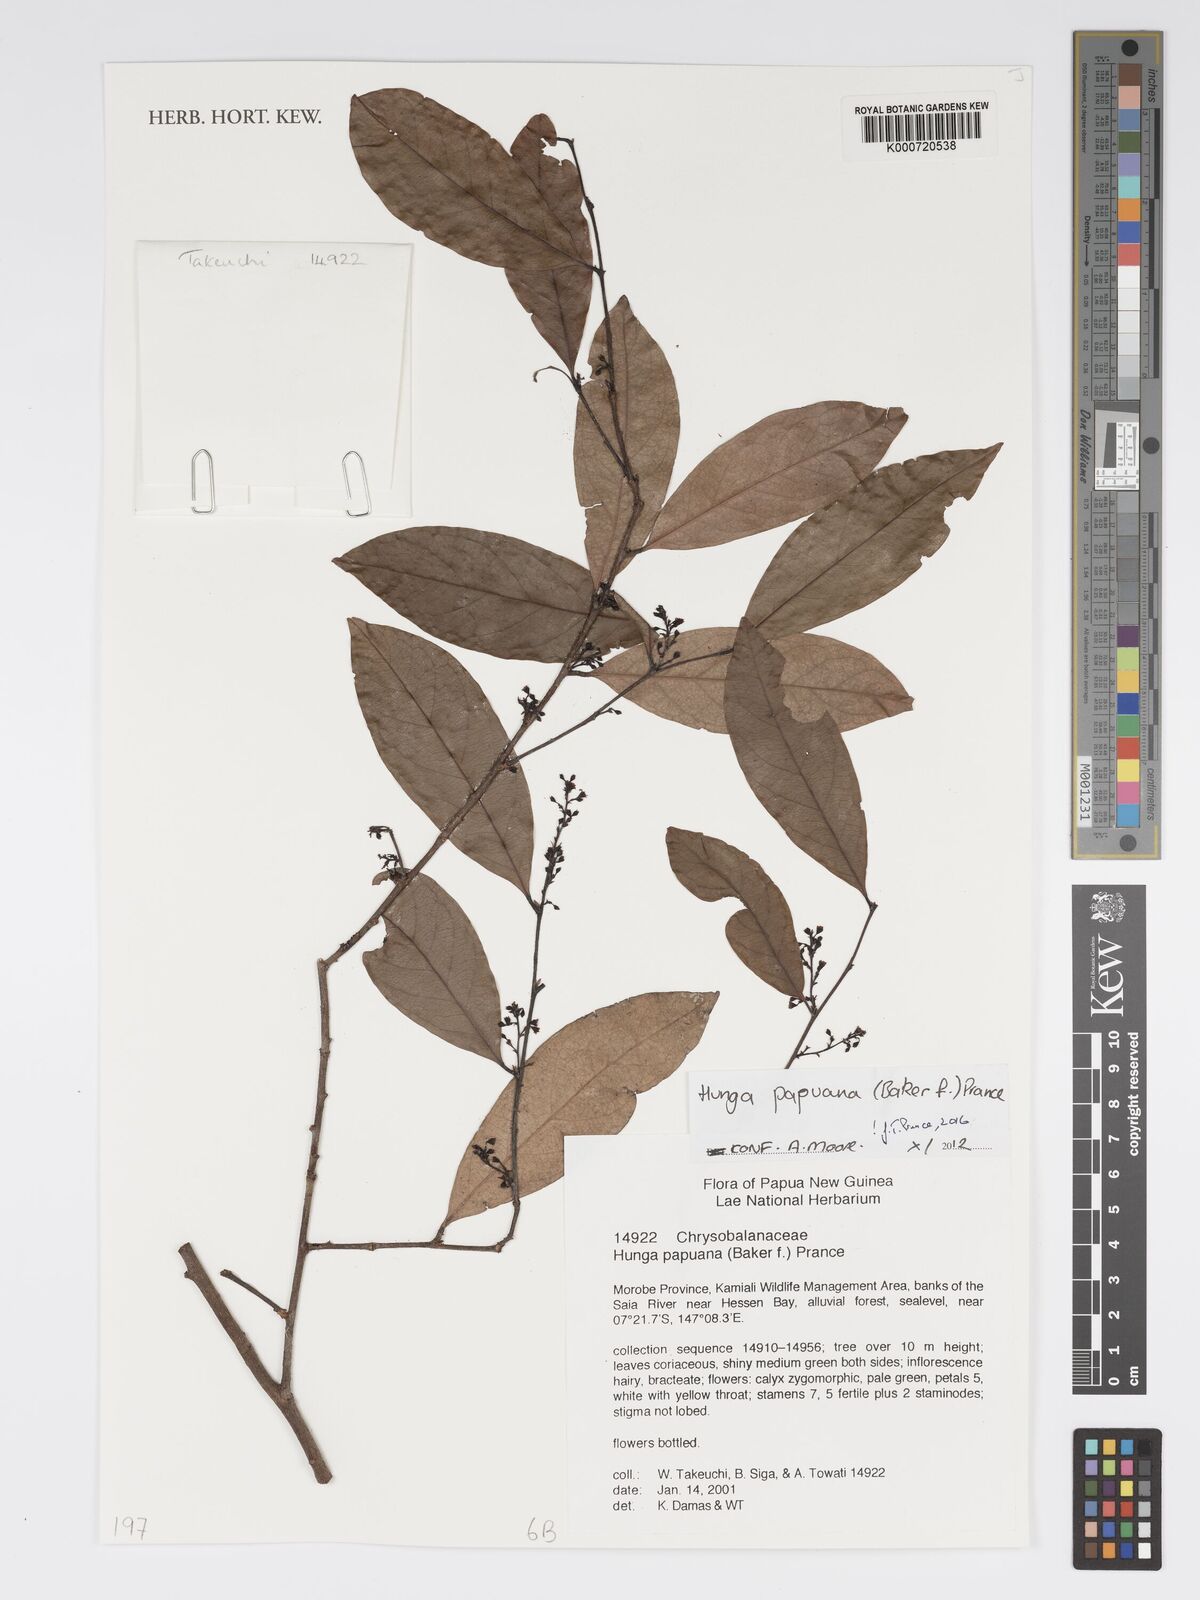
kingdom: Plantae
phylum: Tracheophyta
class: Magnoliopsida
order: Malpighiales
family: Chrysobalanaceae
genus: Hunga
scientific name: Hunga papuana
